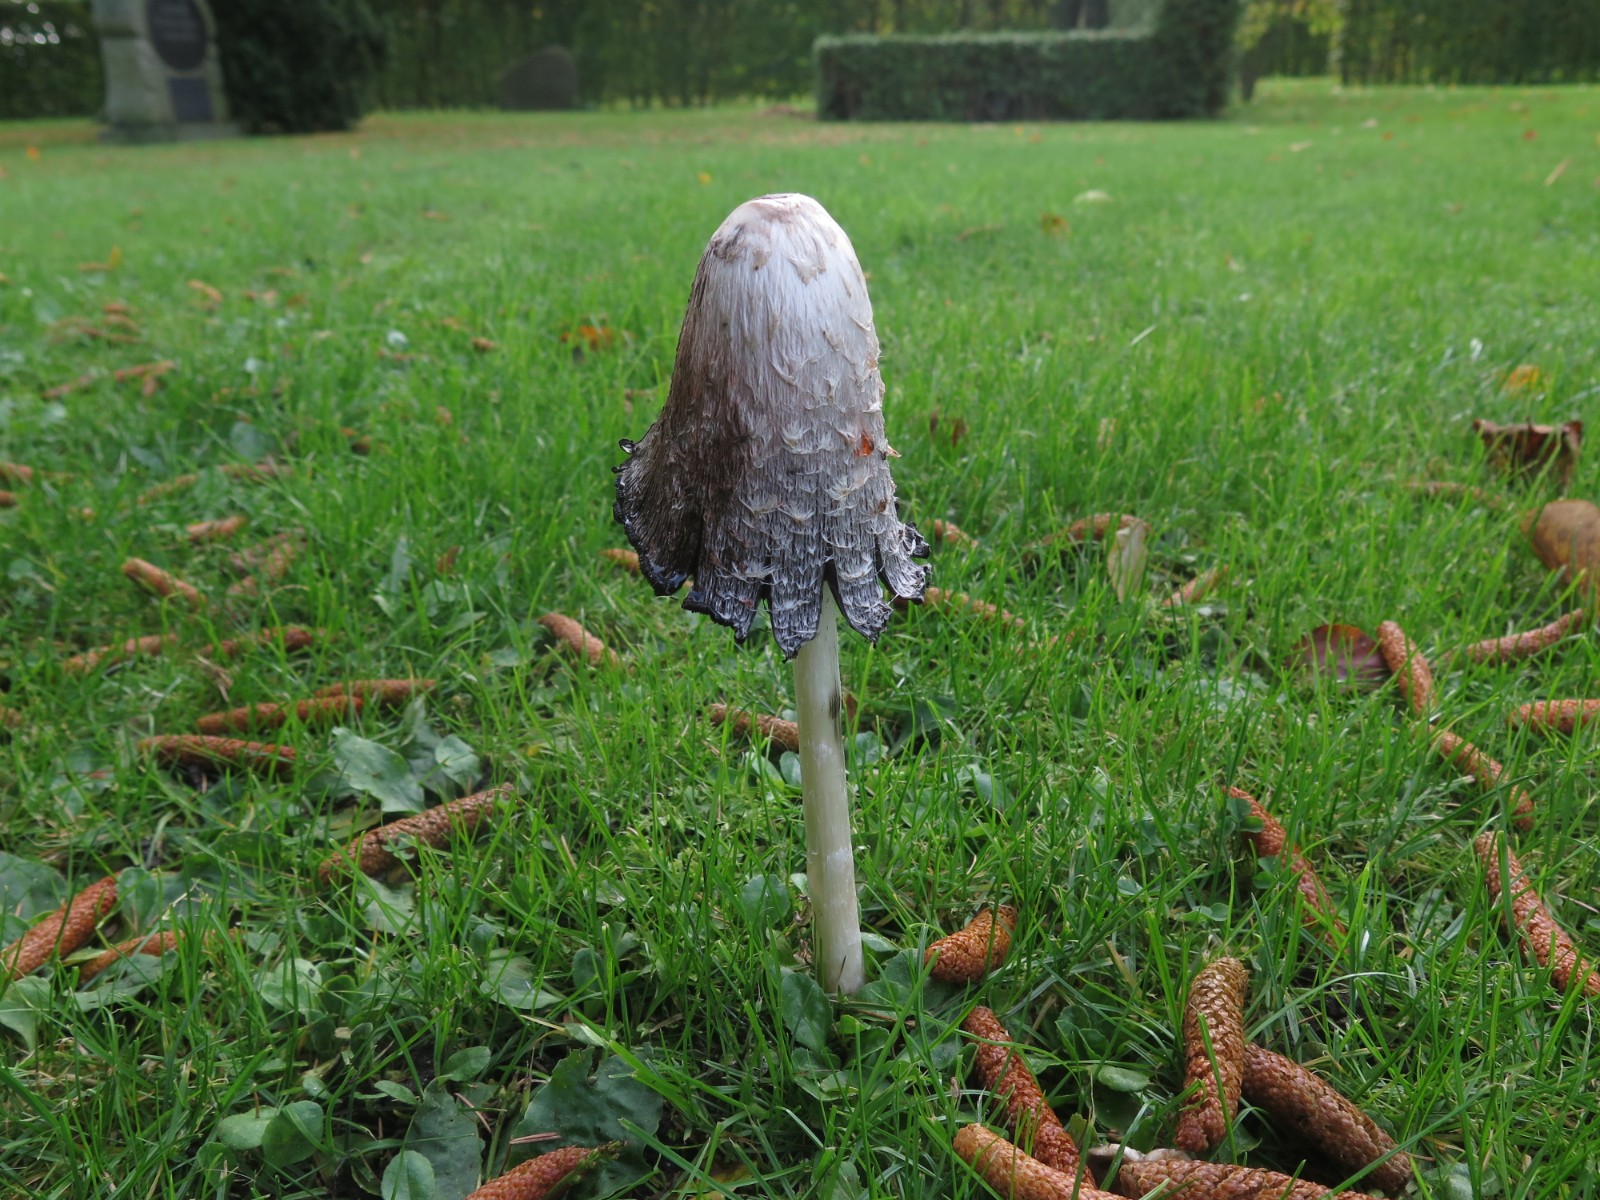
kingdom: Fungi
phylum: Basidiomycota
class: Agaricomycetes
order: Agaricales
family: Agaricaceae
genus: Coprinus
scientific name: Coprinus comatus
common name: stor parykhat
